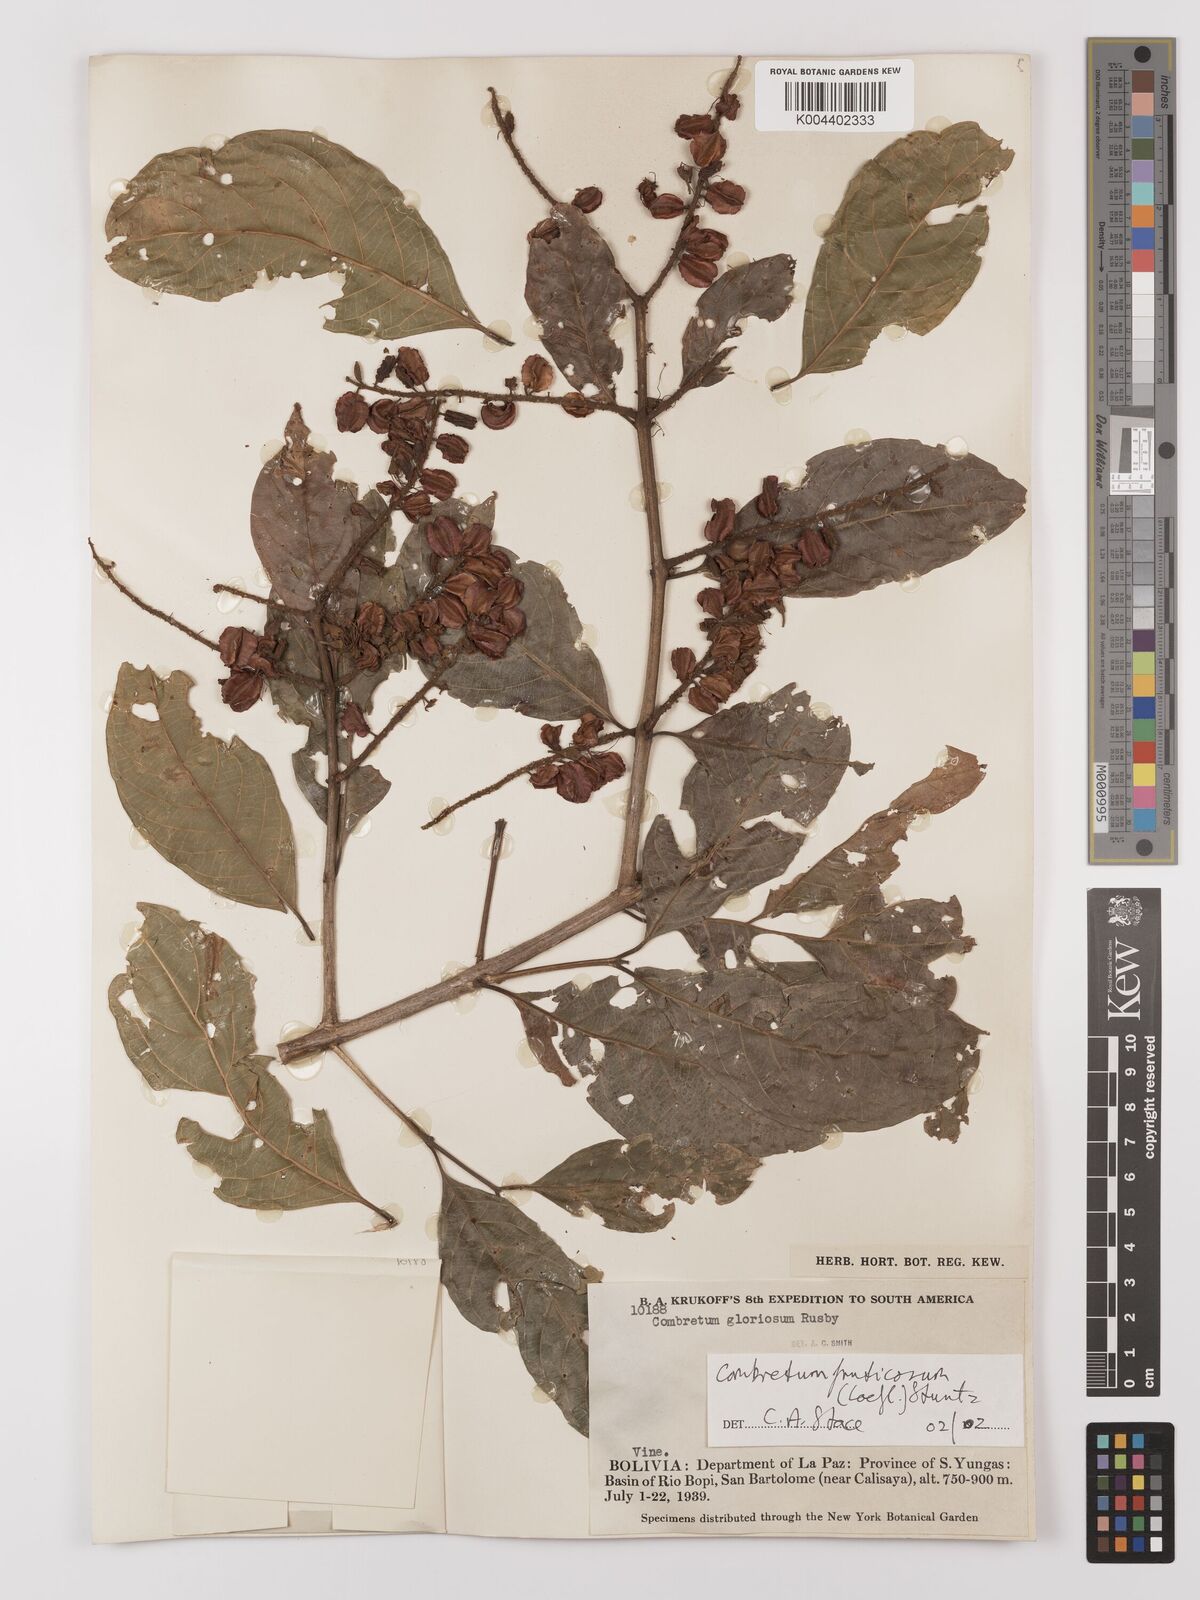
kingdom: Plantae
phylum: Tracheophyta
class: Magnoliopsida
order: Myrtales
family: Combretaceae
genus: Combretum
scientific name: Combretum fruticosum
